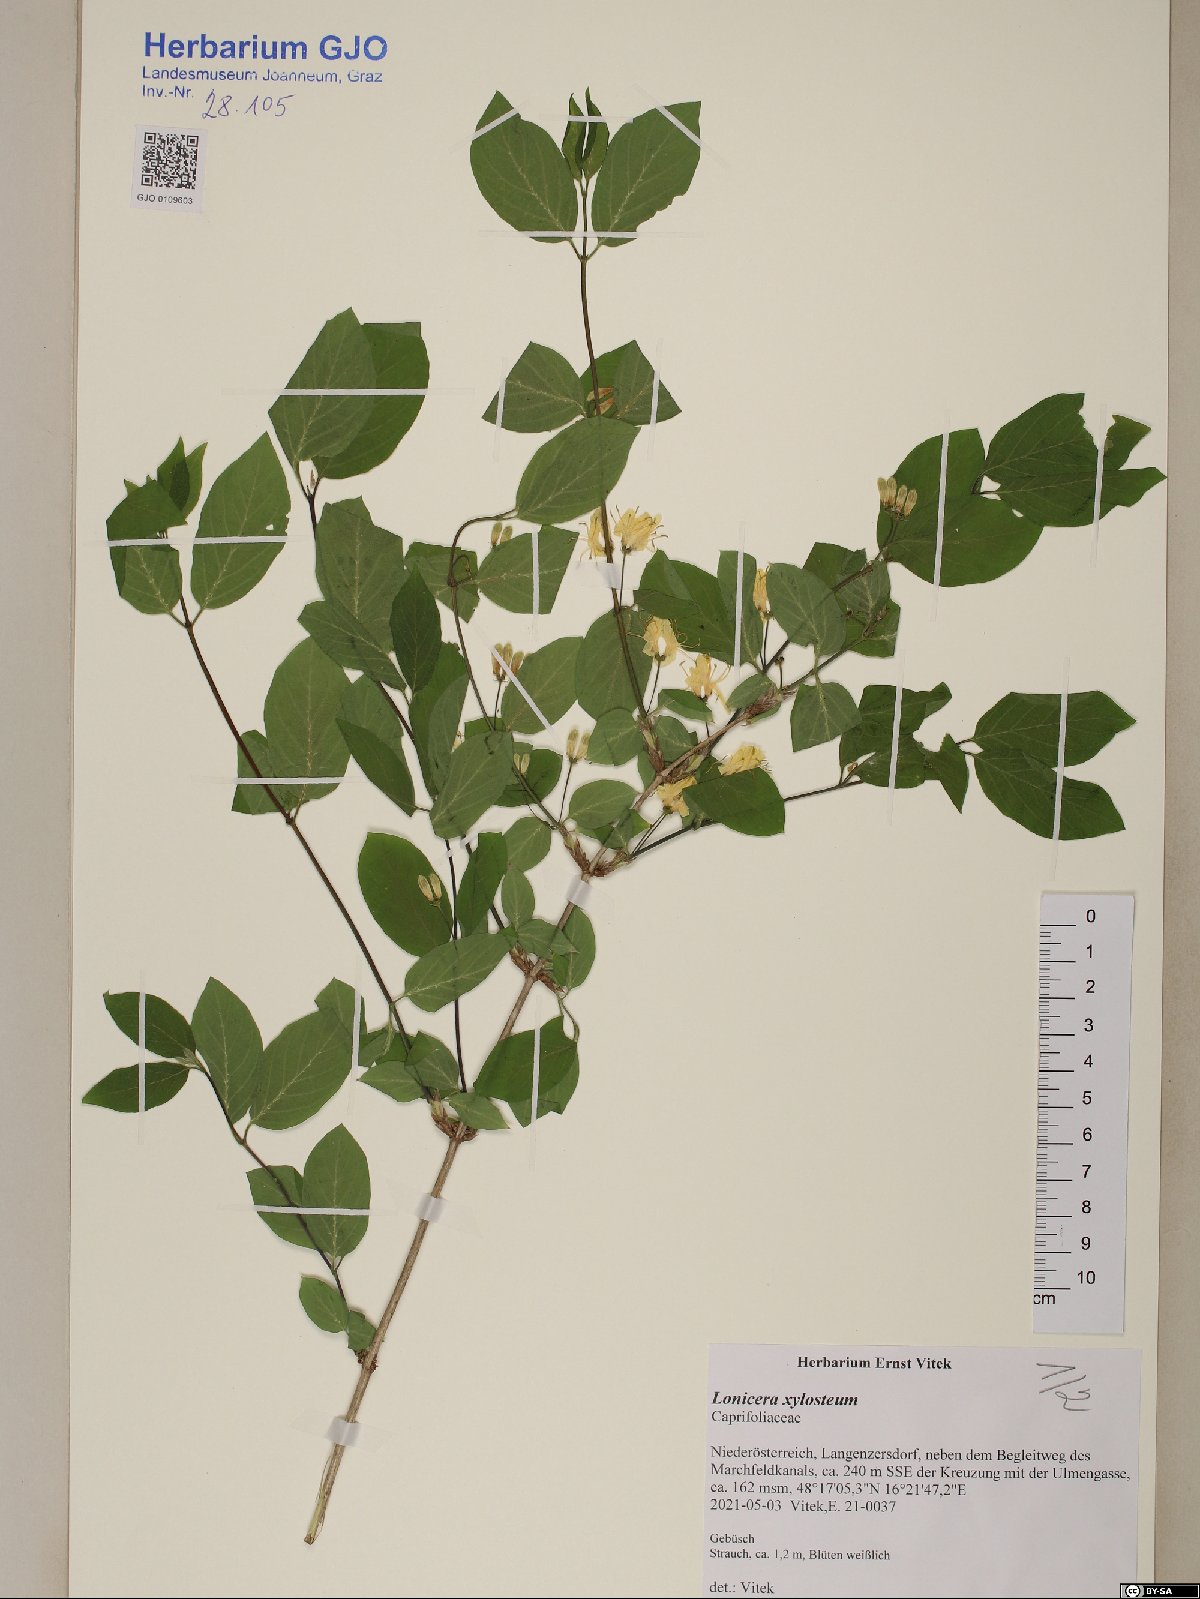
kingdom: Plantae
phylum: Tracheophyta
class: Magnoliopsida
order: Dipsacales
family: Caprifoliaceae
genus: Lonicera
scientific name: Lonicera xylosteum
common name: Fly honeysuckle
